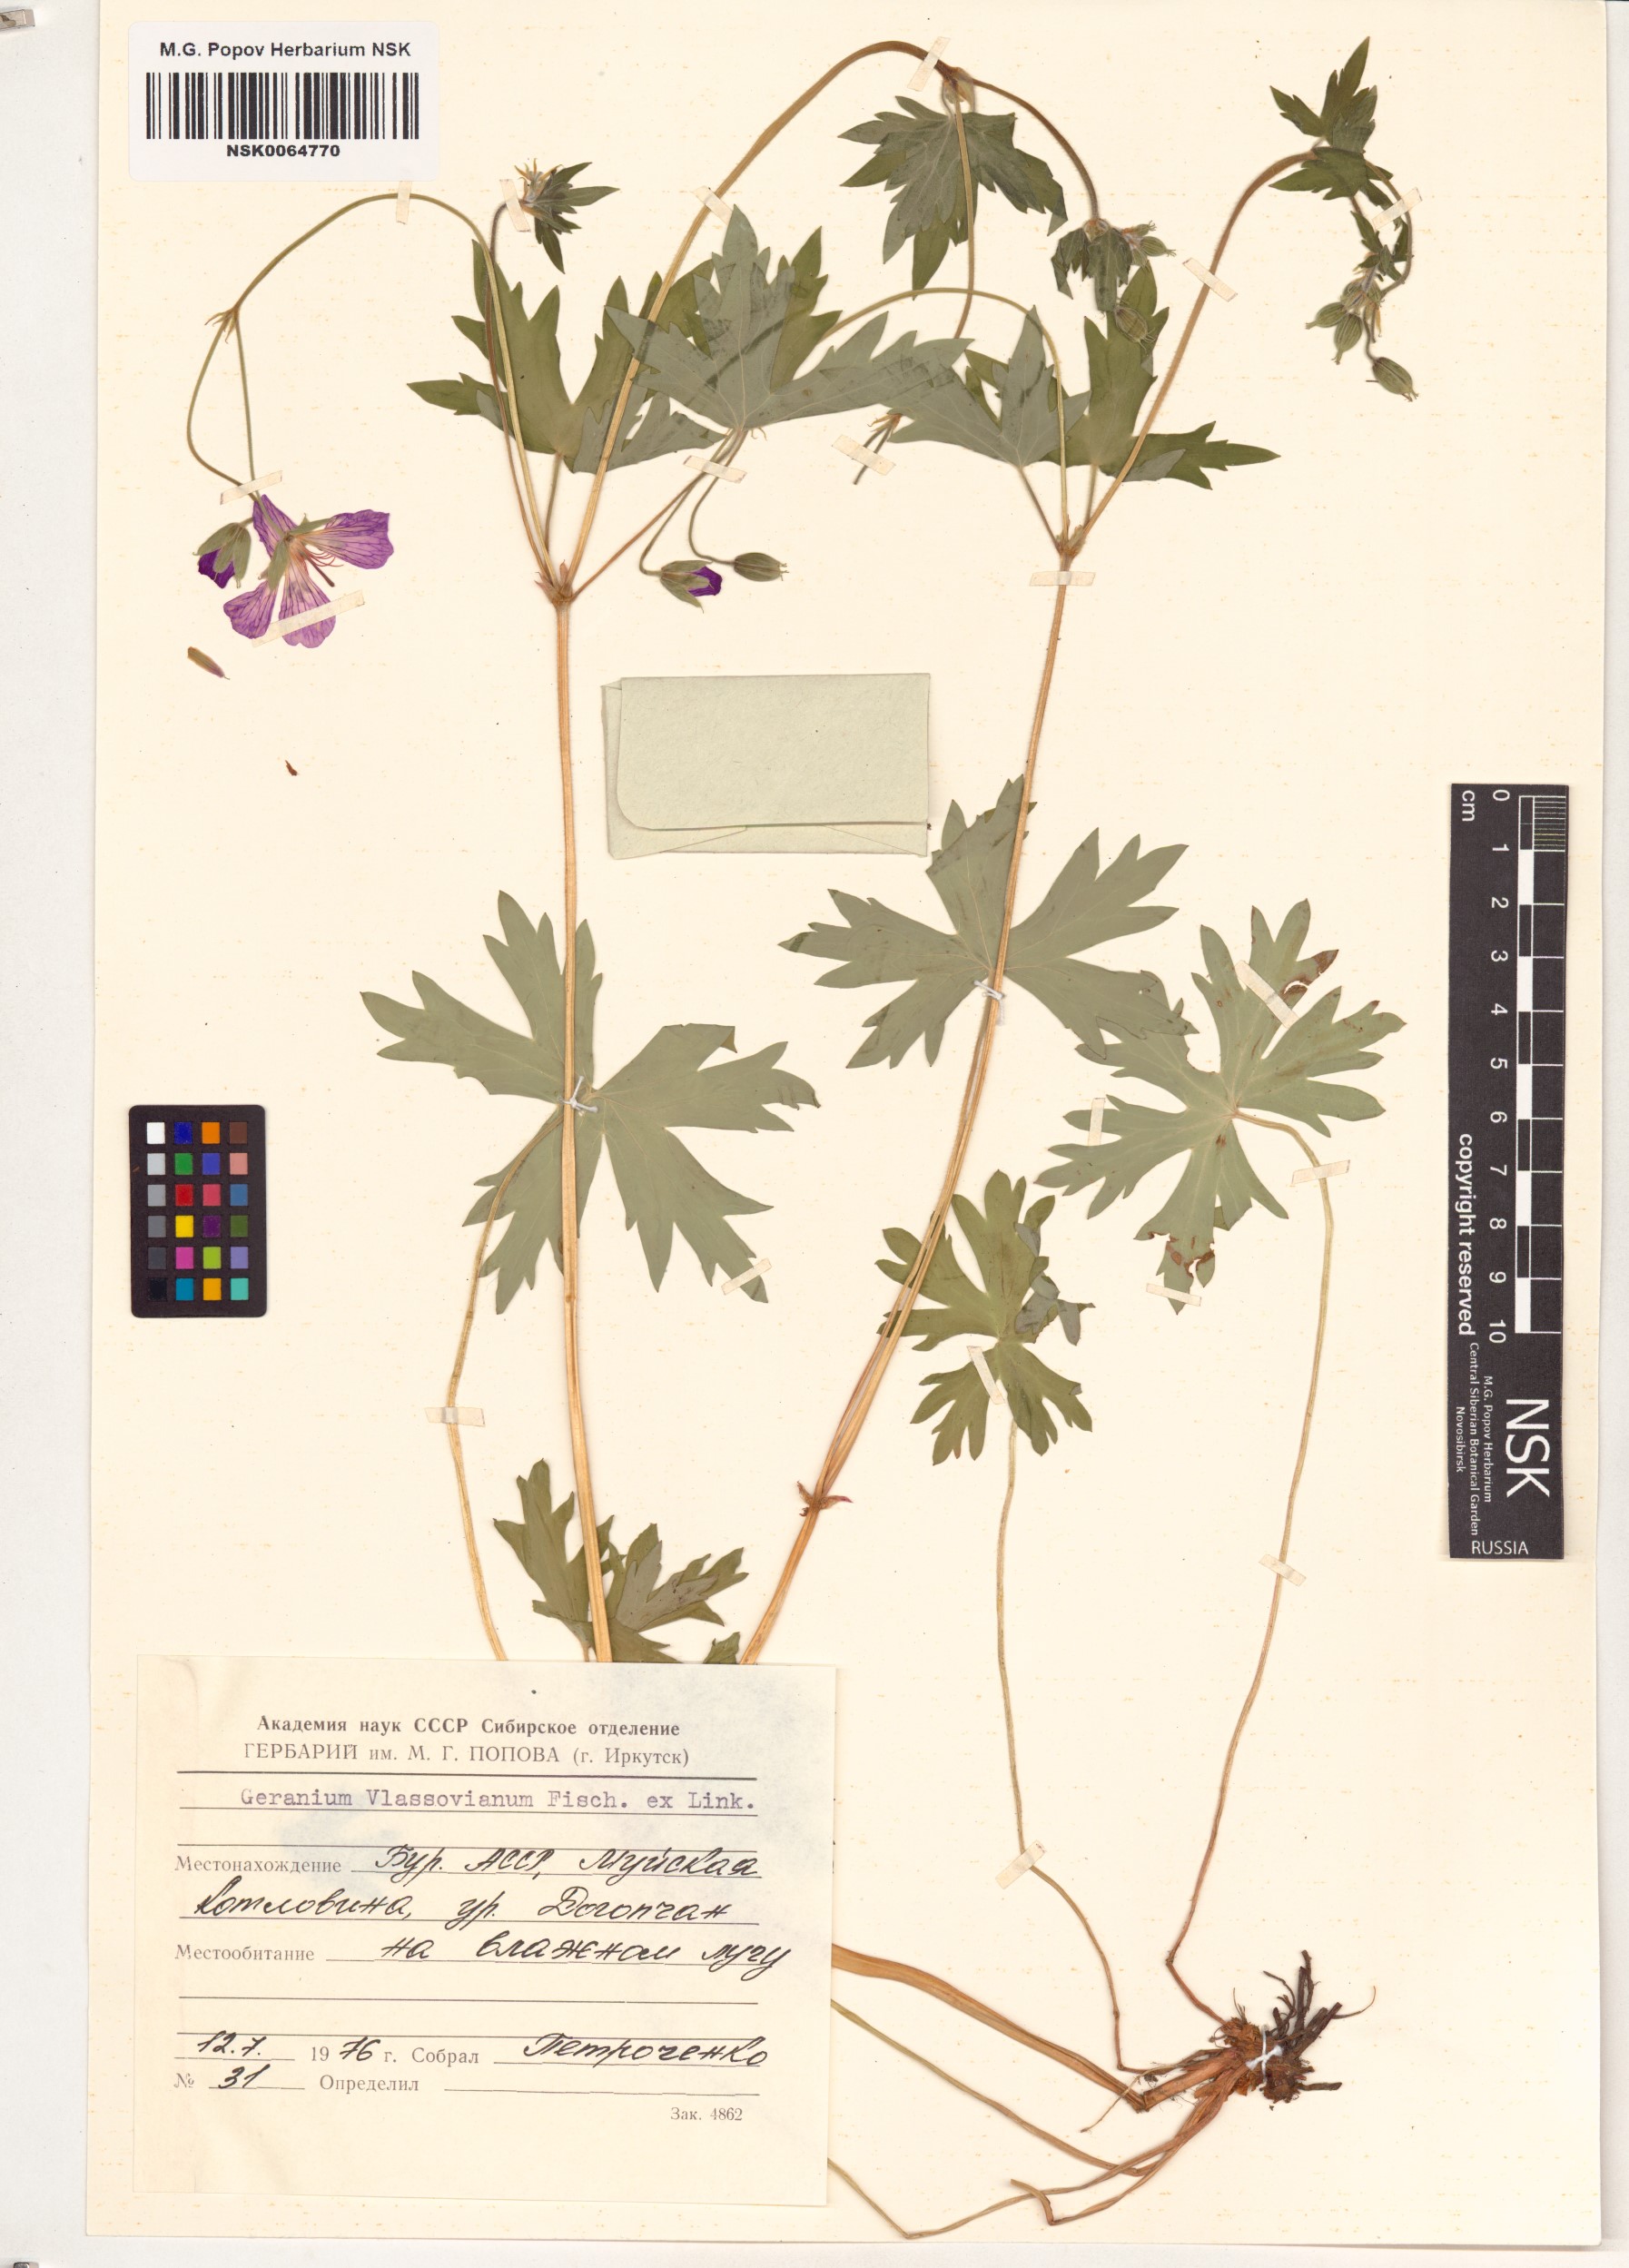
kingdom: Plantae
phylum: Tracheophyta
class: Magnoliopsida
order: Geraniales
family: Geraniaceae
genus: Geranium
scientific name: Geranium wlassovianum
